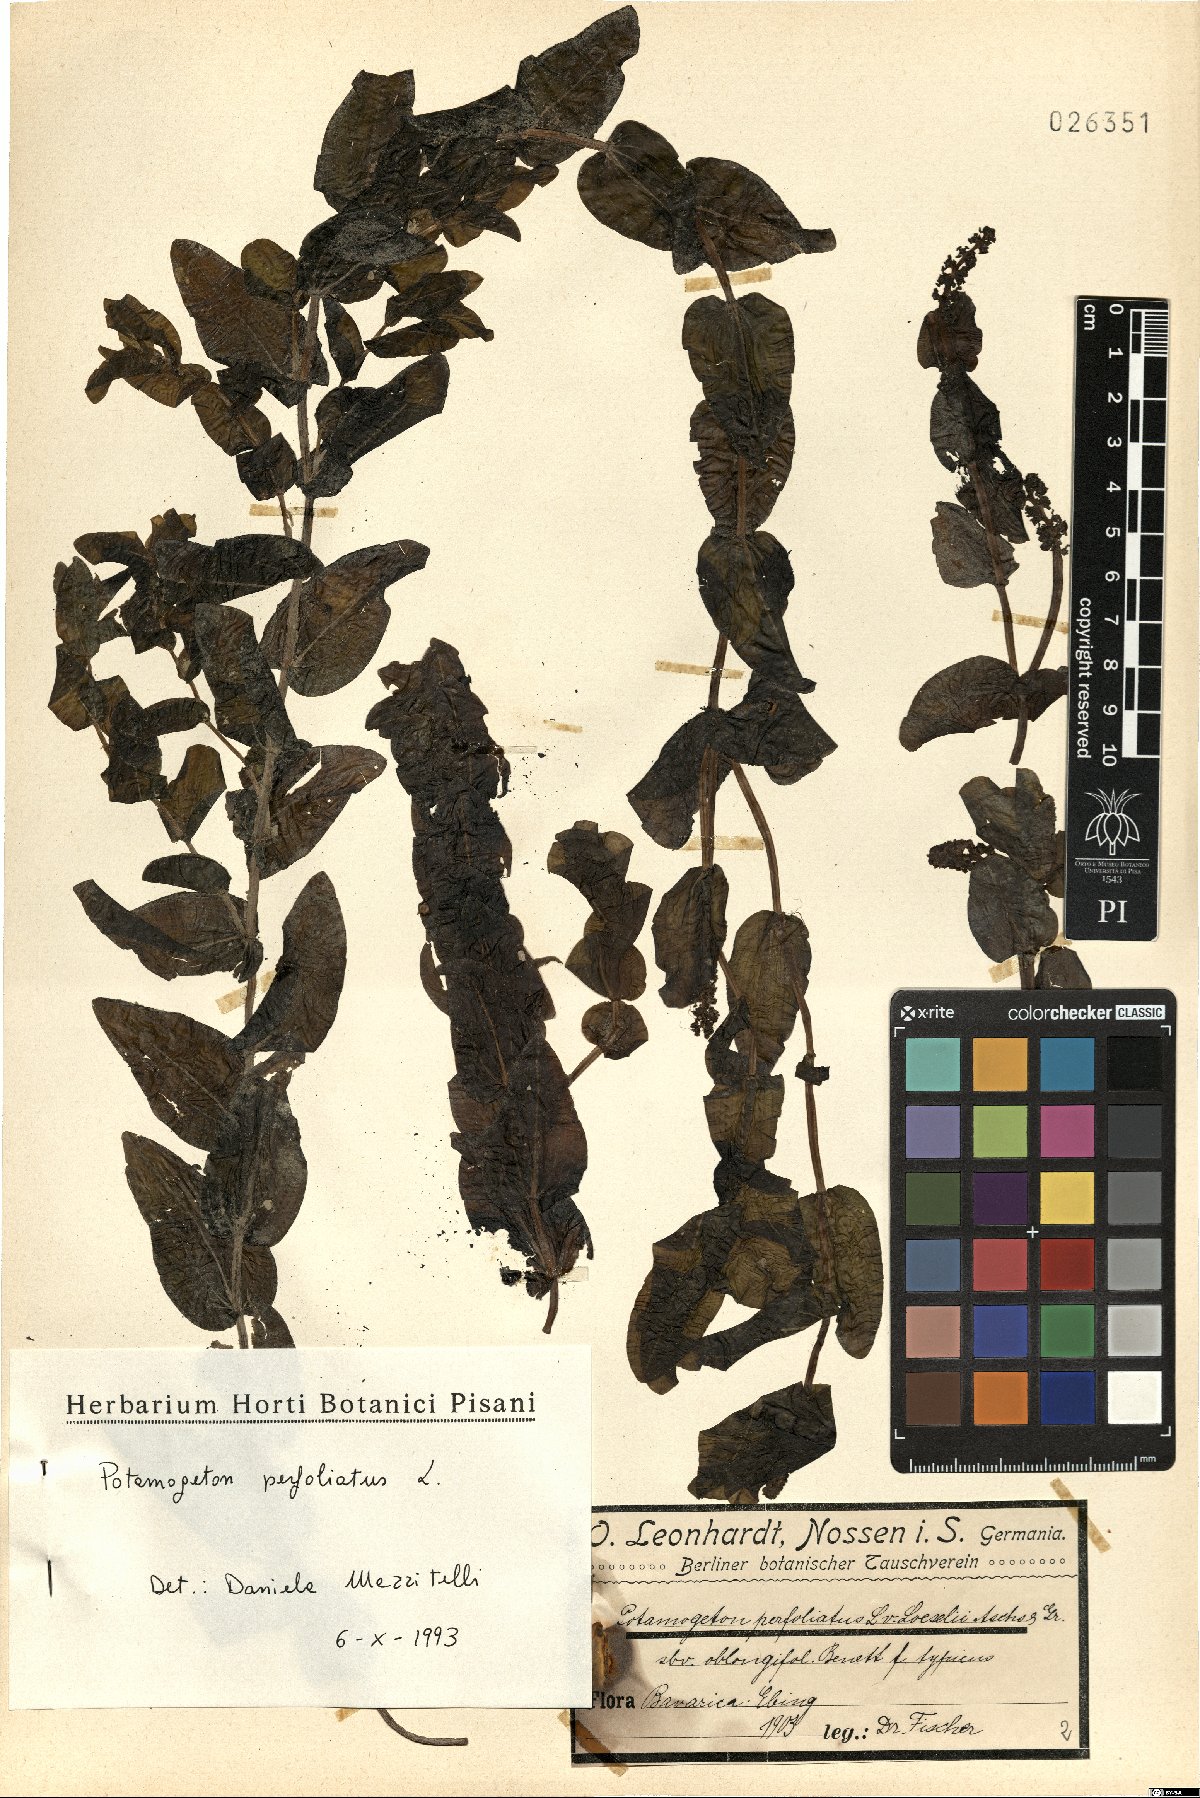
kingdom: Plantae
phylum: Tracheophyta
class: Liliopsida
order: Alismatales
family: Potamogetonaceae
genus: Potamogeton
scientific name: Potamogeton perfoliatus
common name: Perfoliate pondweed
